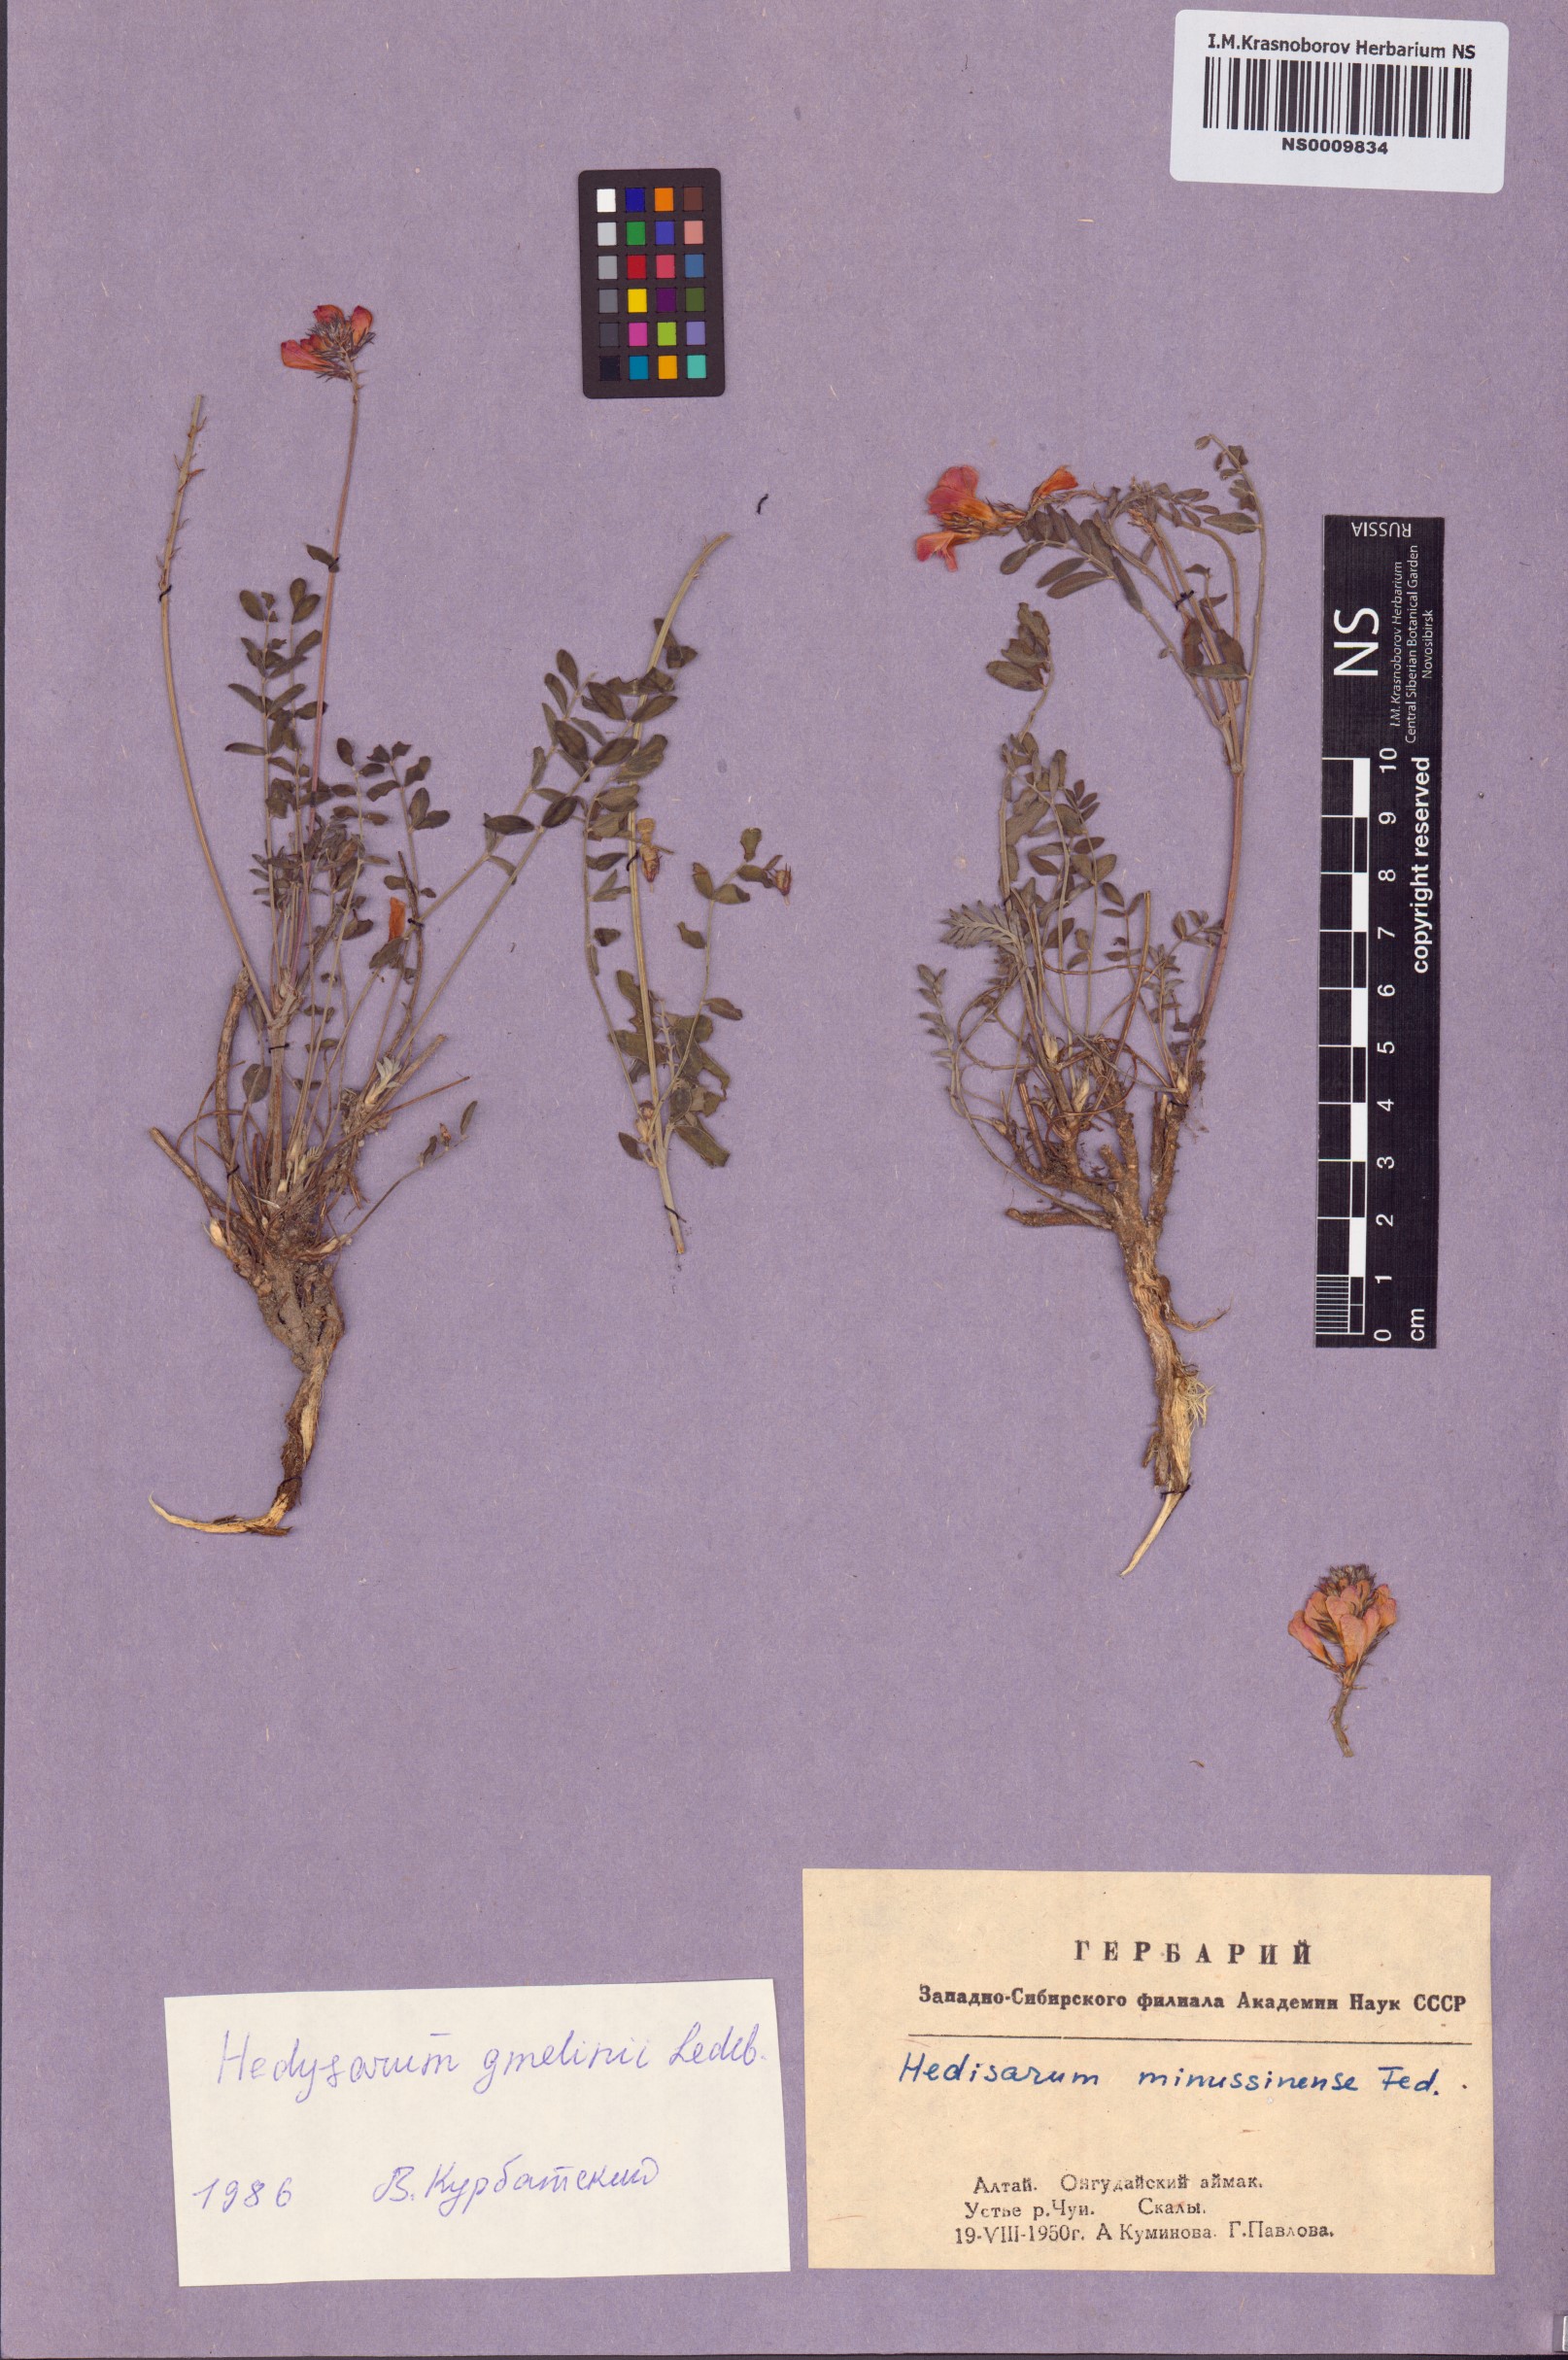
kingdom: Plantae
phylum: Tracheophyta
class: Magnoliopsida
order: Fabales
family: Fabaceae
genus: Hedysarum
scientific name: Hedysarum gmelinii
